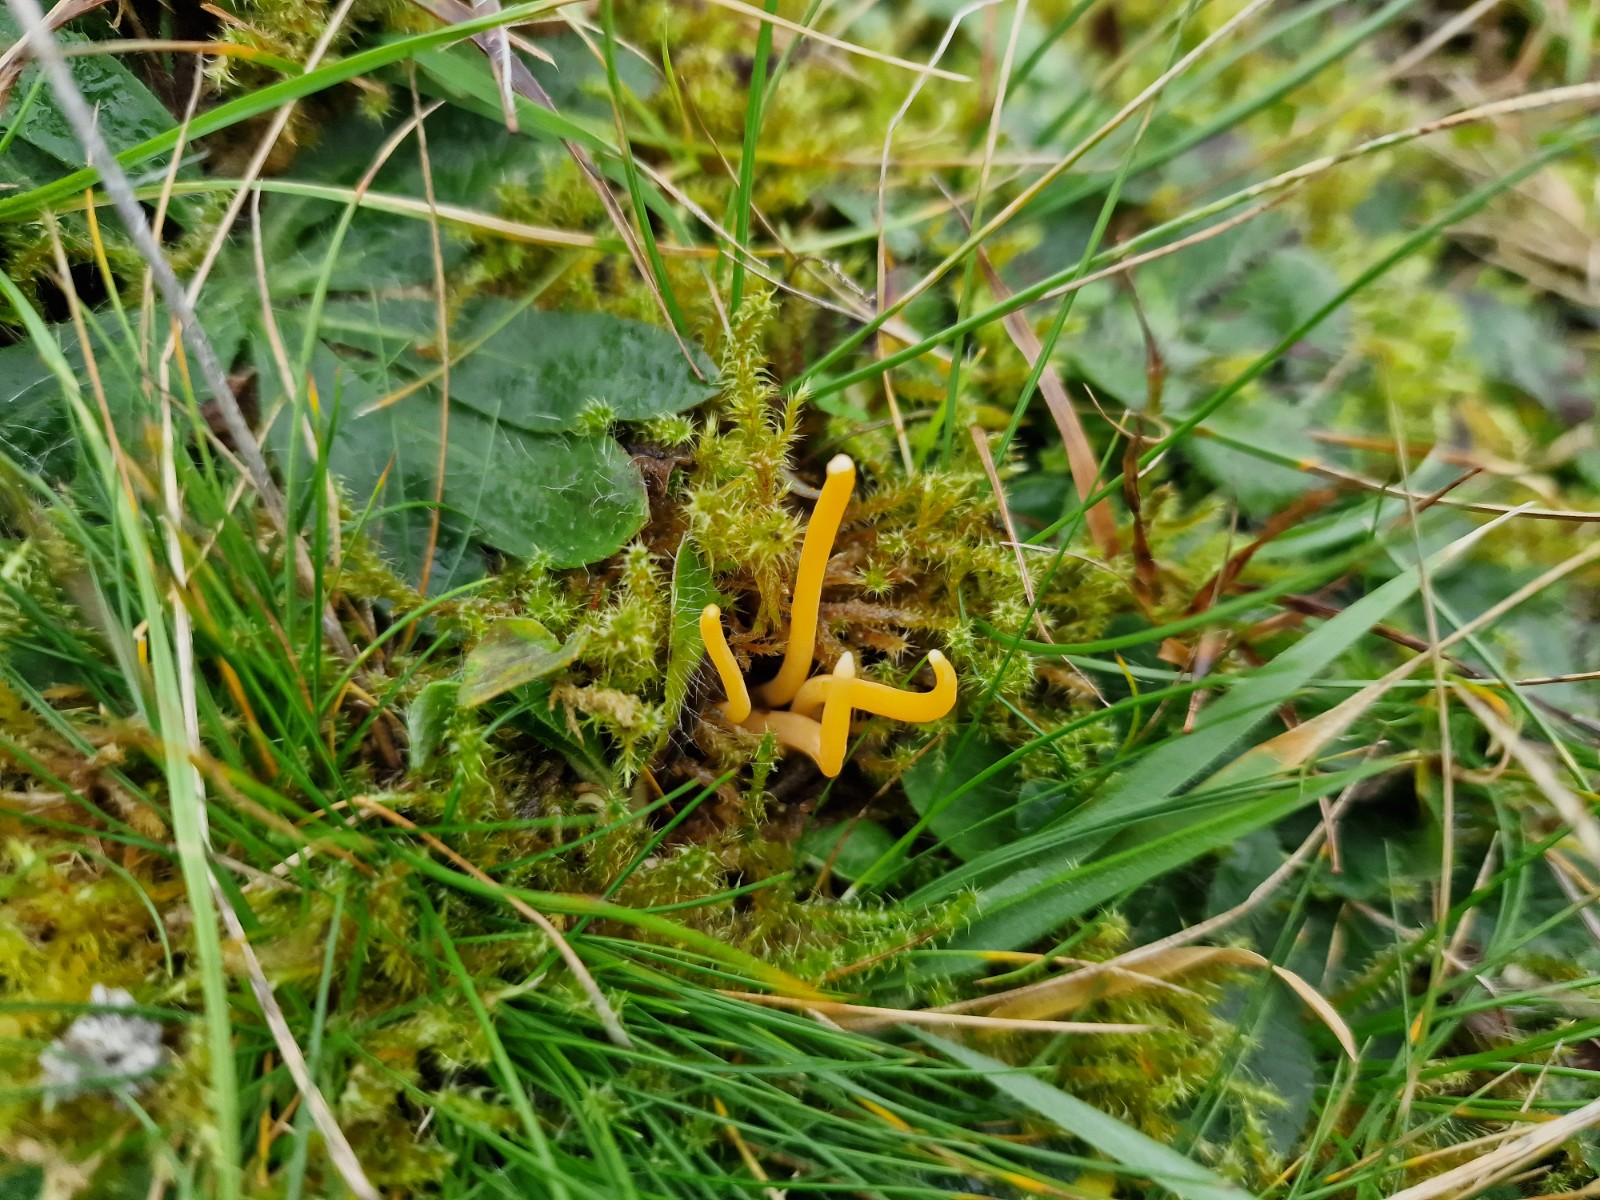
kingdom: Fungi
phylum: Basidiomycota
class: Agaricomycetes
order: Agaricales
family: Clavariaceae
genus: Clavulinopsis
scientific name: Clavulinopsis luteoalba
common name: abrikos-køllesvamp
